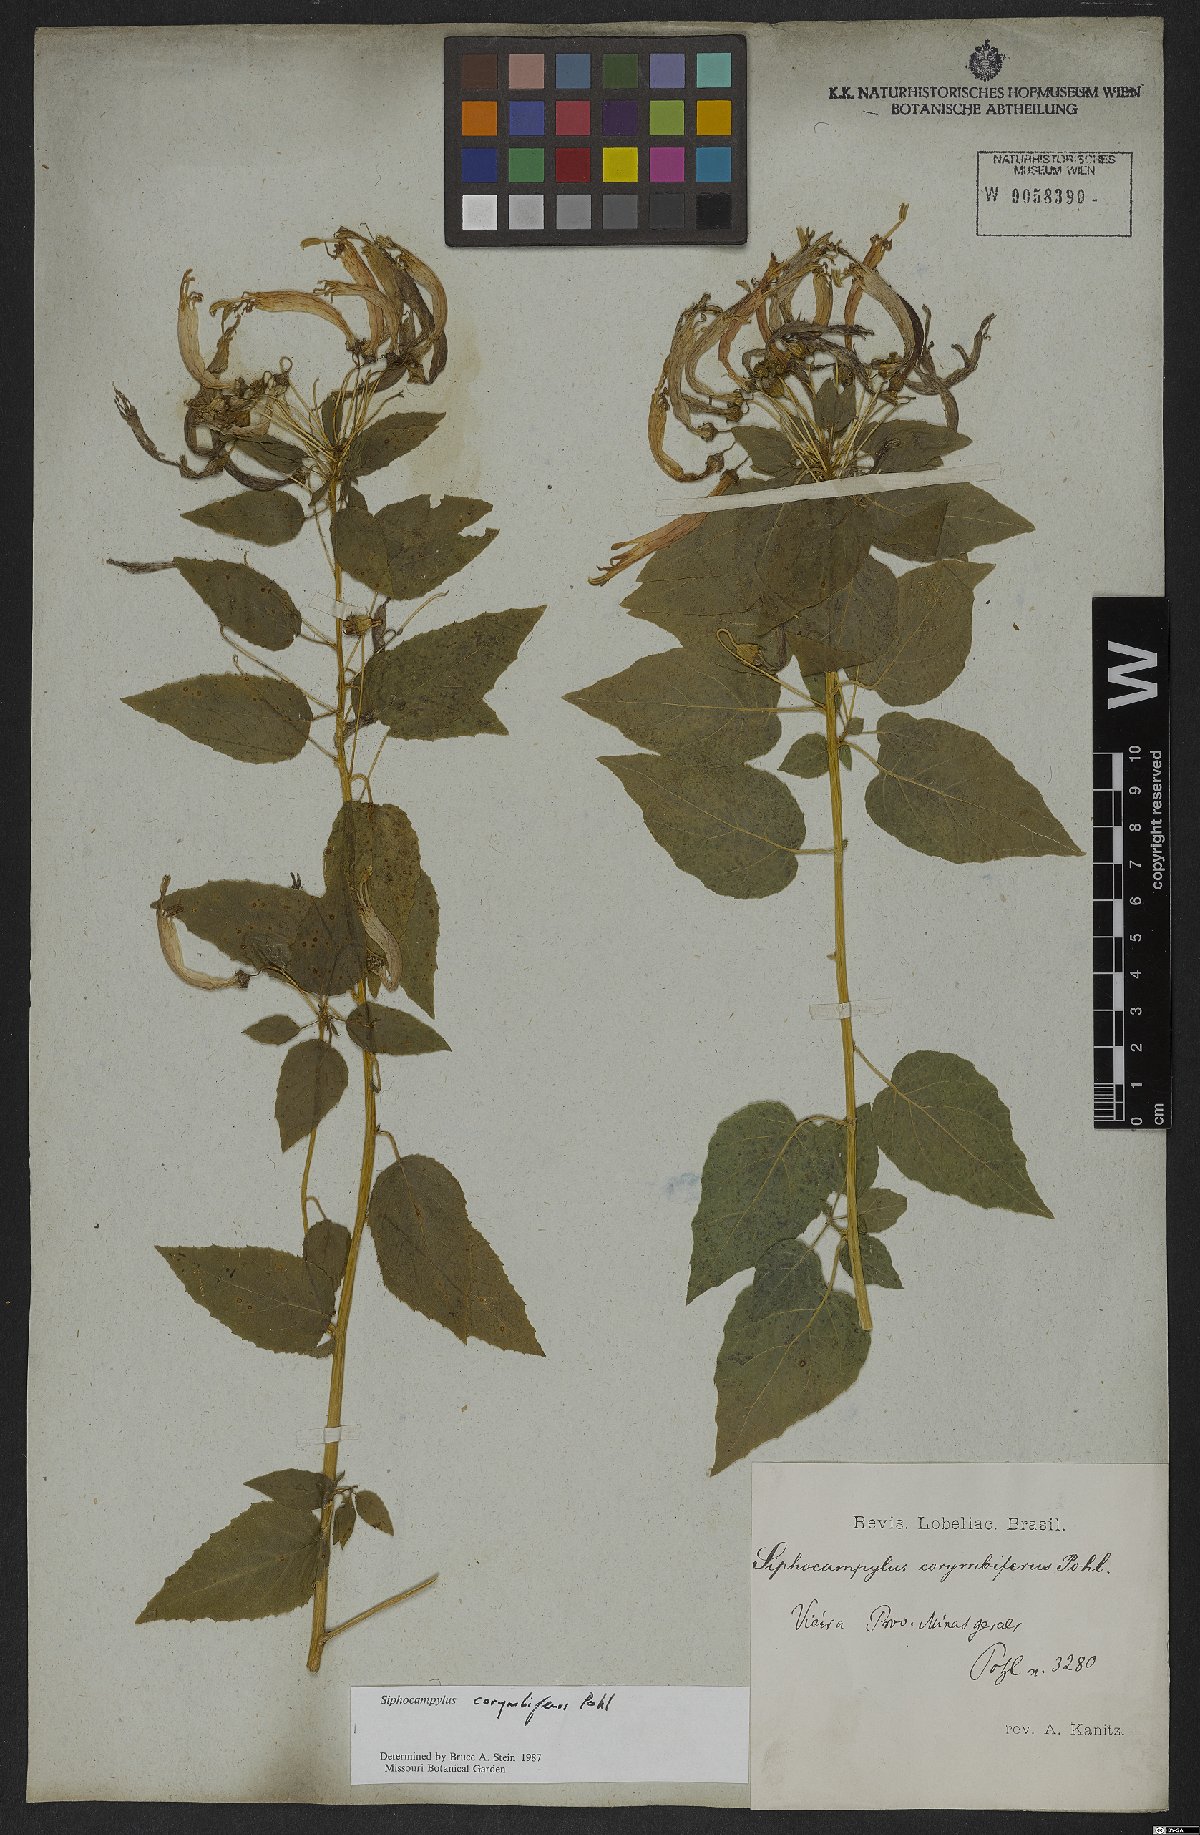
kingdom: Plantae
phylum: Tracheophyta
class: Magnoliopsida
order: Asterales
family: Campanulaceae
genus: Siphocampylus
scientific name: Siphocampylus corymbiferus
